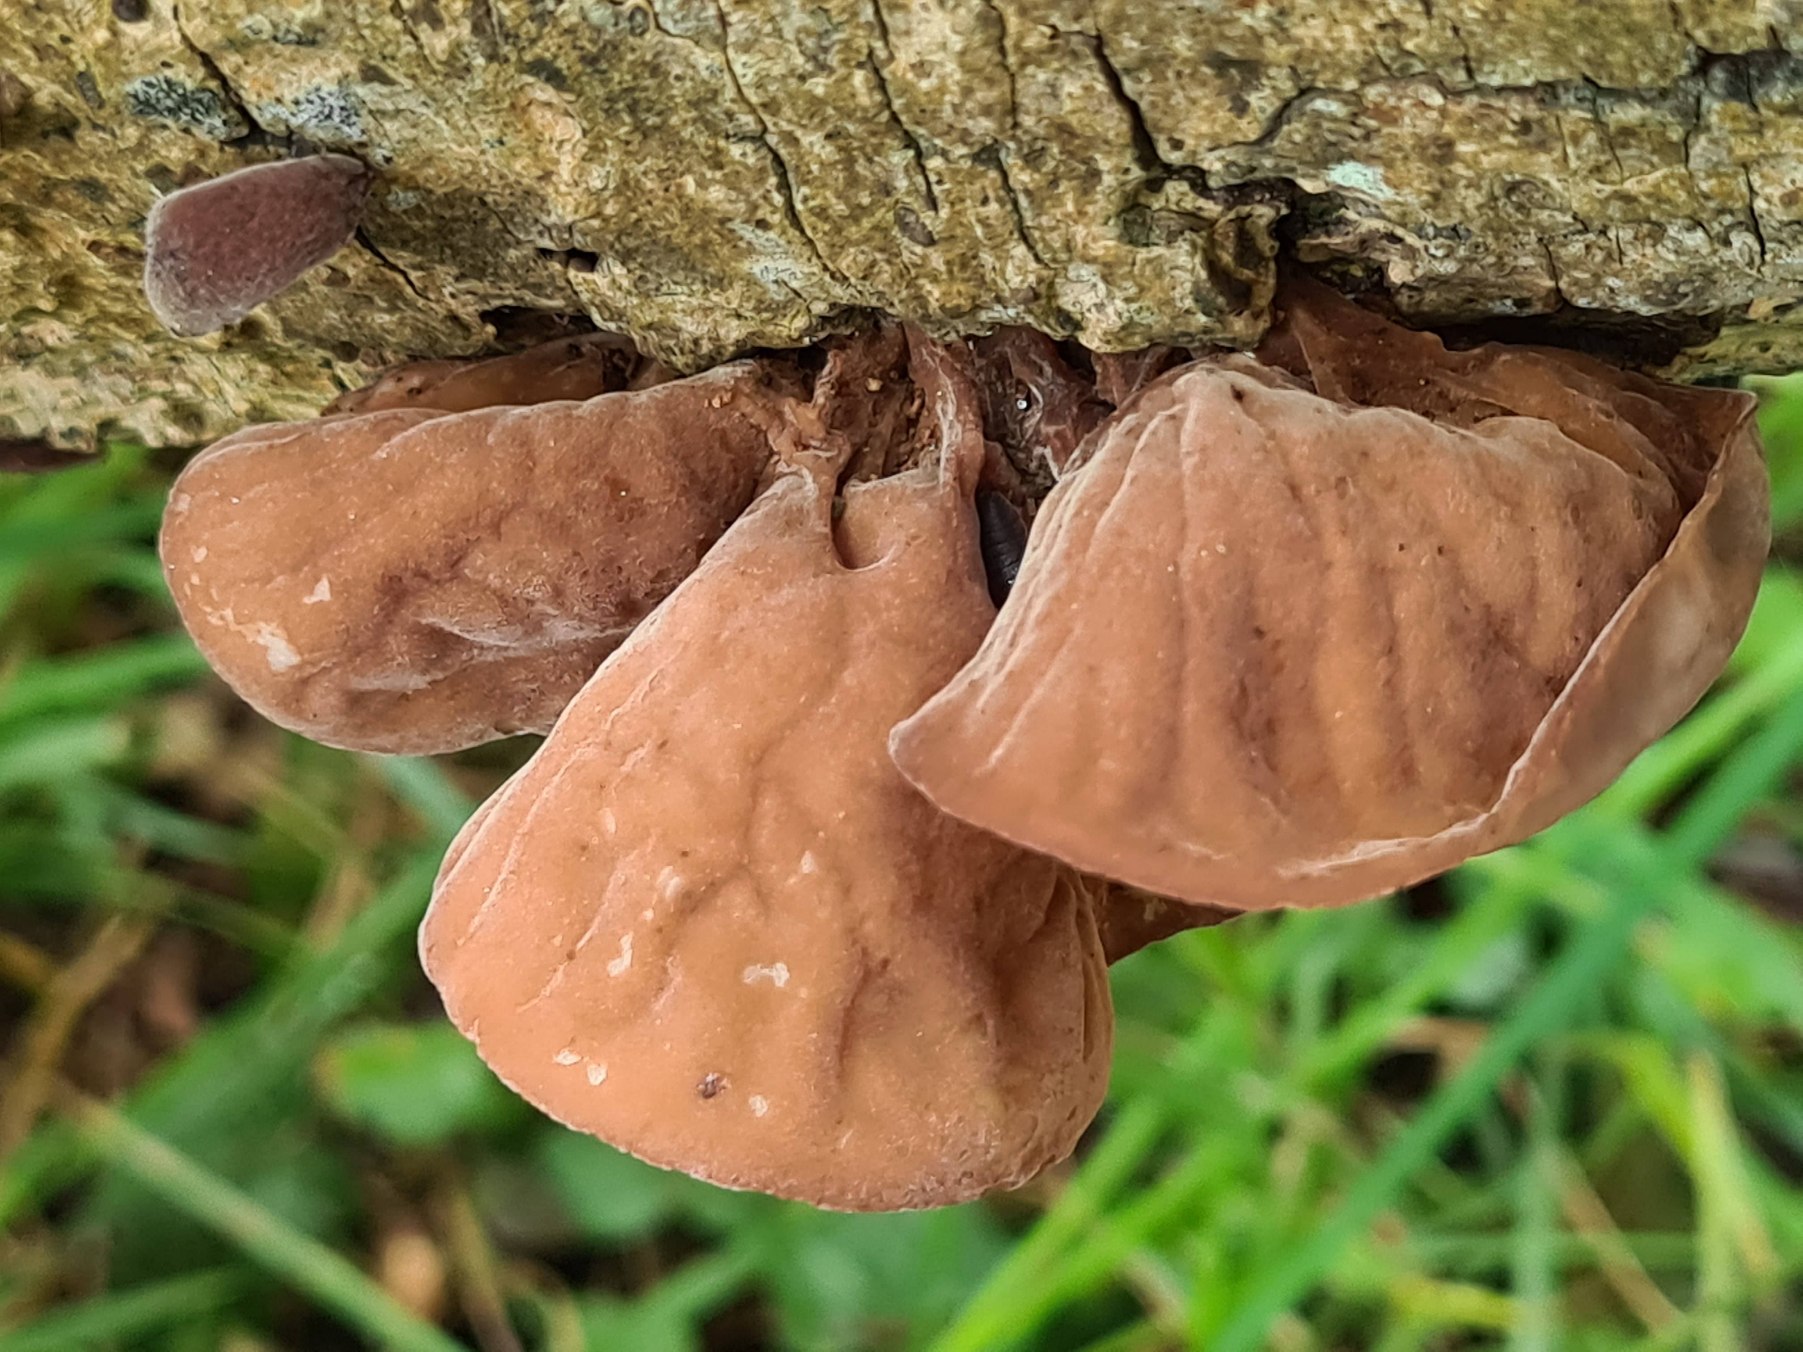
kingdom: Fungi
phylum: Basidiomycota
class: Agaricomycetes
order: Auriculariales
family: Auriculariaceae
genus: Auricularia
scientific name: Auricularia auricula-judae
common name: Almindelig judasøre
